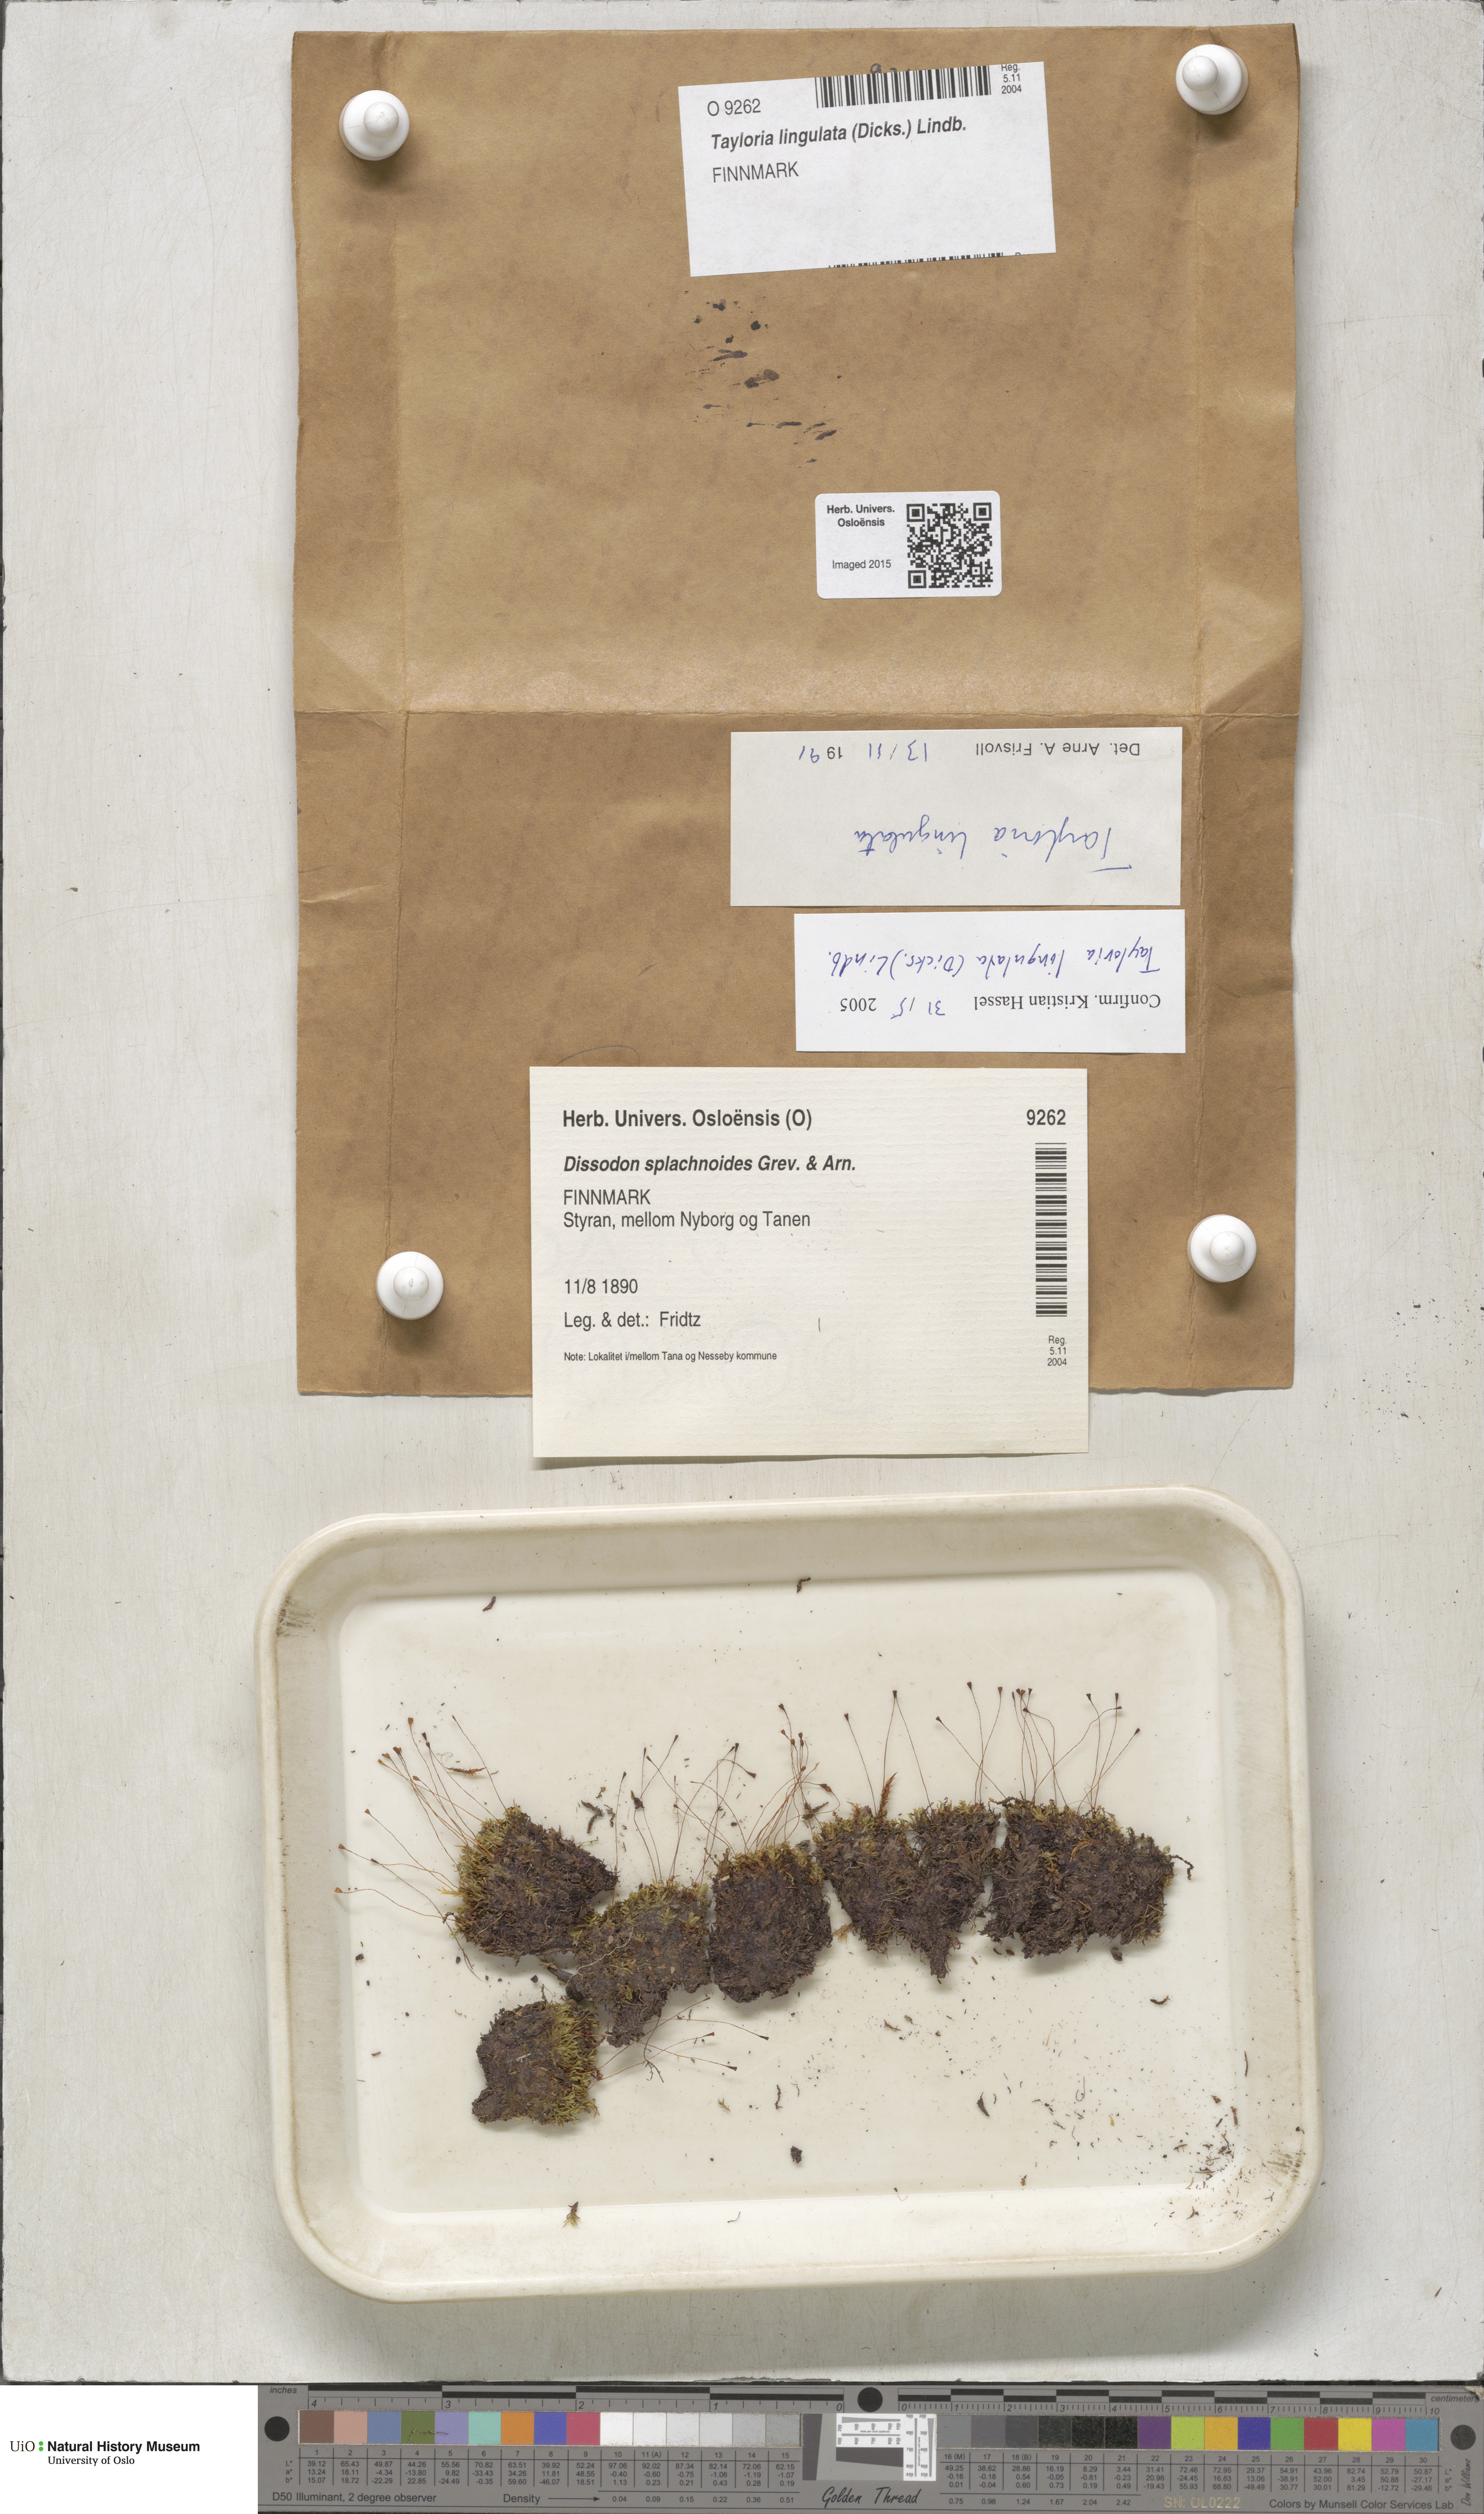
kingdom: Plantae
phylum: Bryophyta
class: Bryopsida
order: Splachnales
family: Splachnaceae
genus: Tayloria
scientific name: Tayloria lingulata
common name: Tongue-leaved trumpet moss
